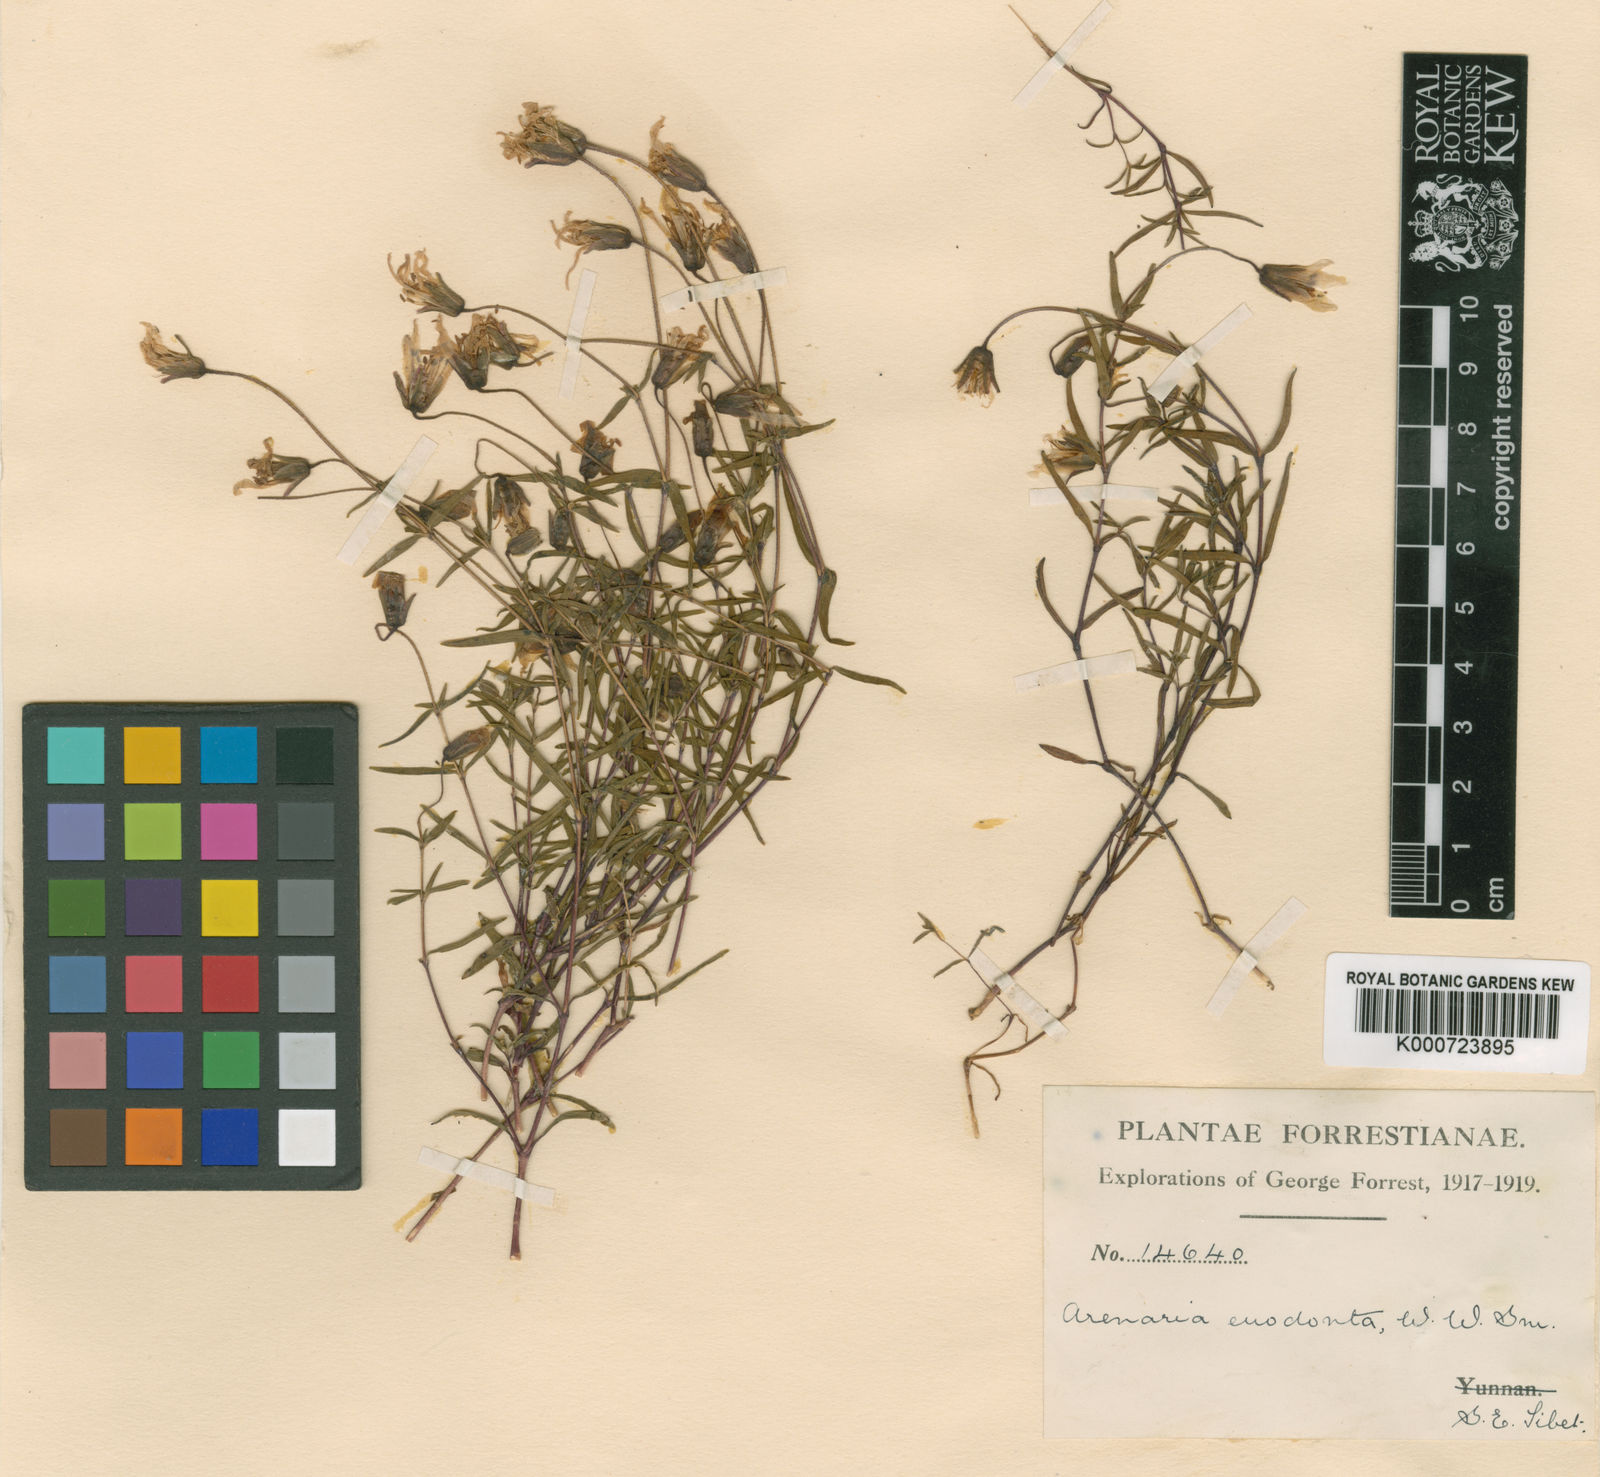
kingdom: Plantae
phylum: Tracheophyta
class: Magnoliopsida
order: Caryophyllales
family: Caryophyllaceae
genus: Odontostemma
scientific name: Odontostemma roseiflorum
